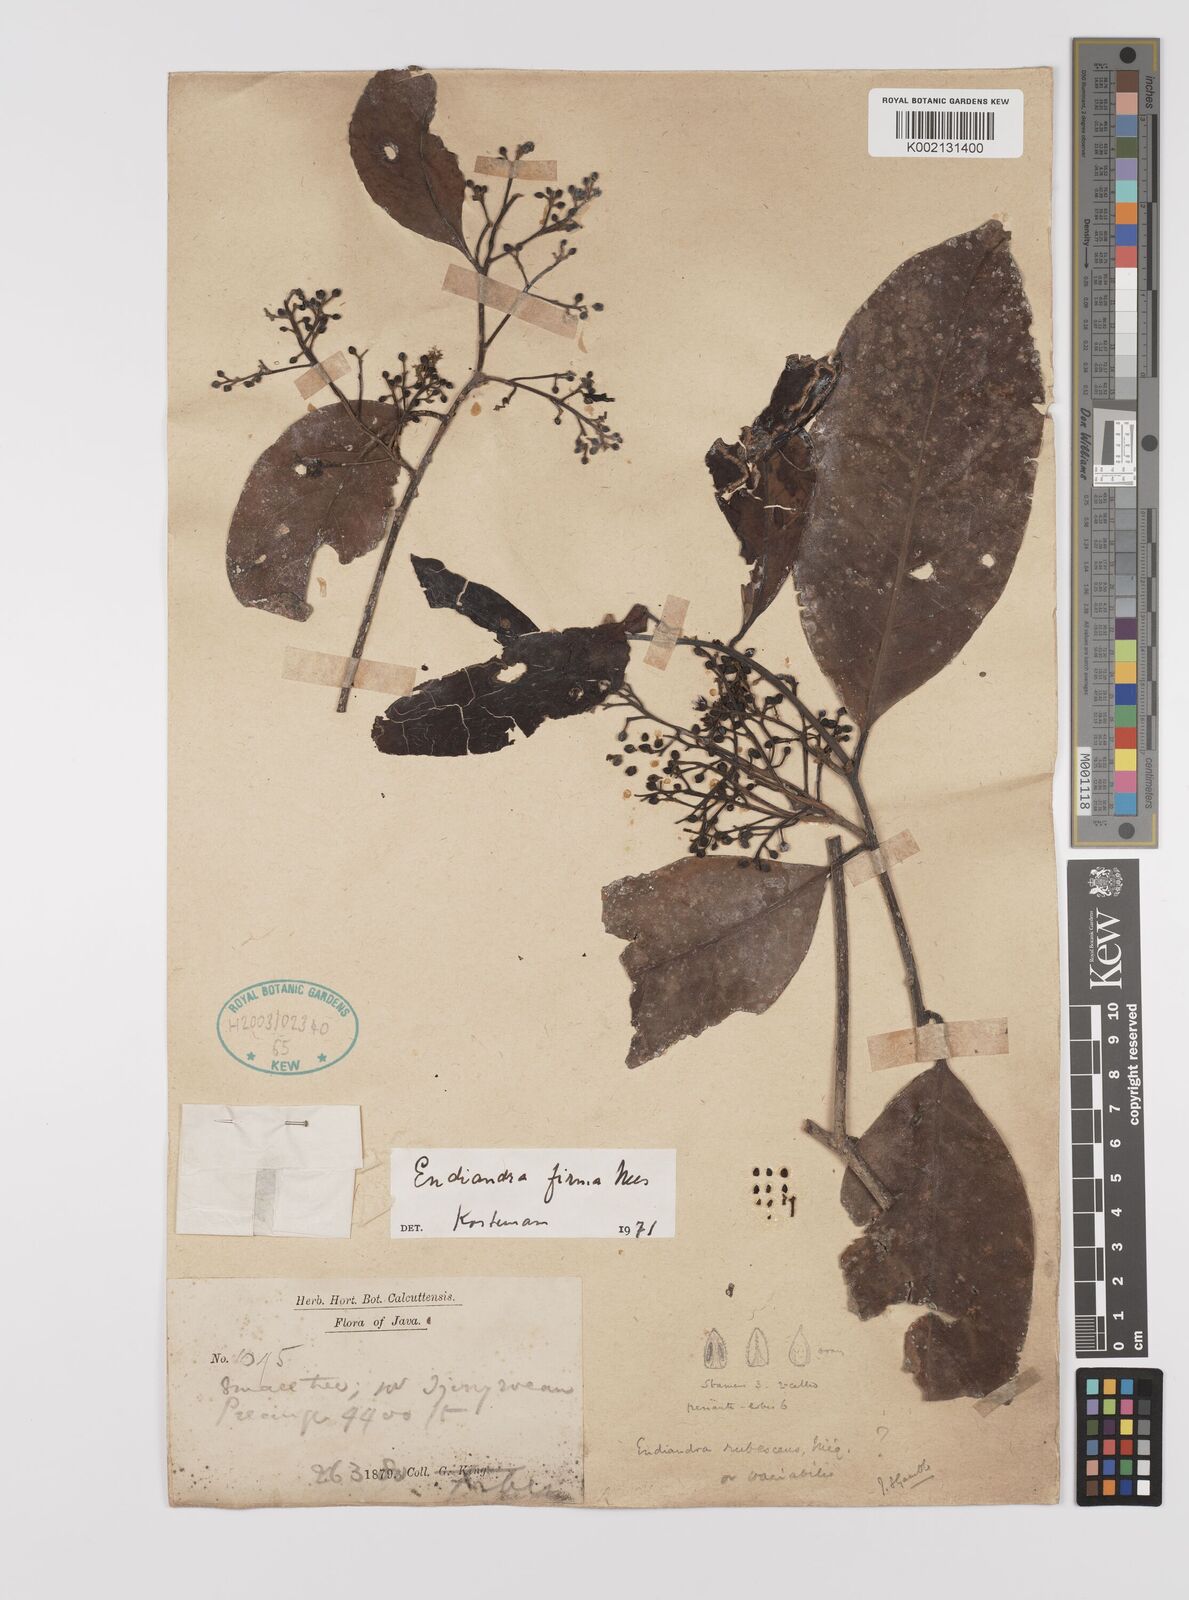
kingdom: Plantae
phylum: Tracheophyta
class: Magnoliopsida
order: Laurales
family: Lauraceae
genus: Endiandra
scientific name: Endiandra firma
